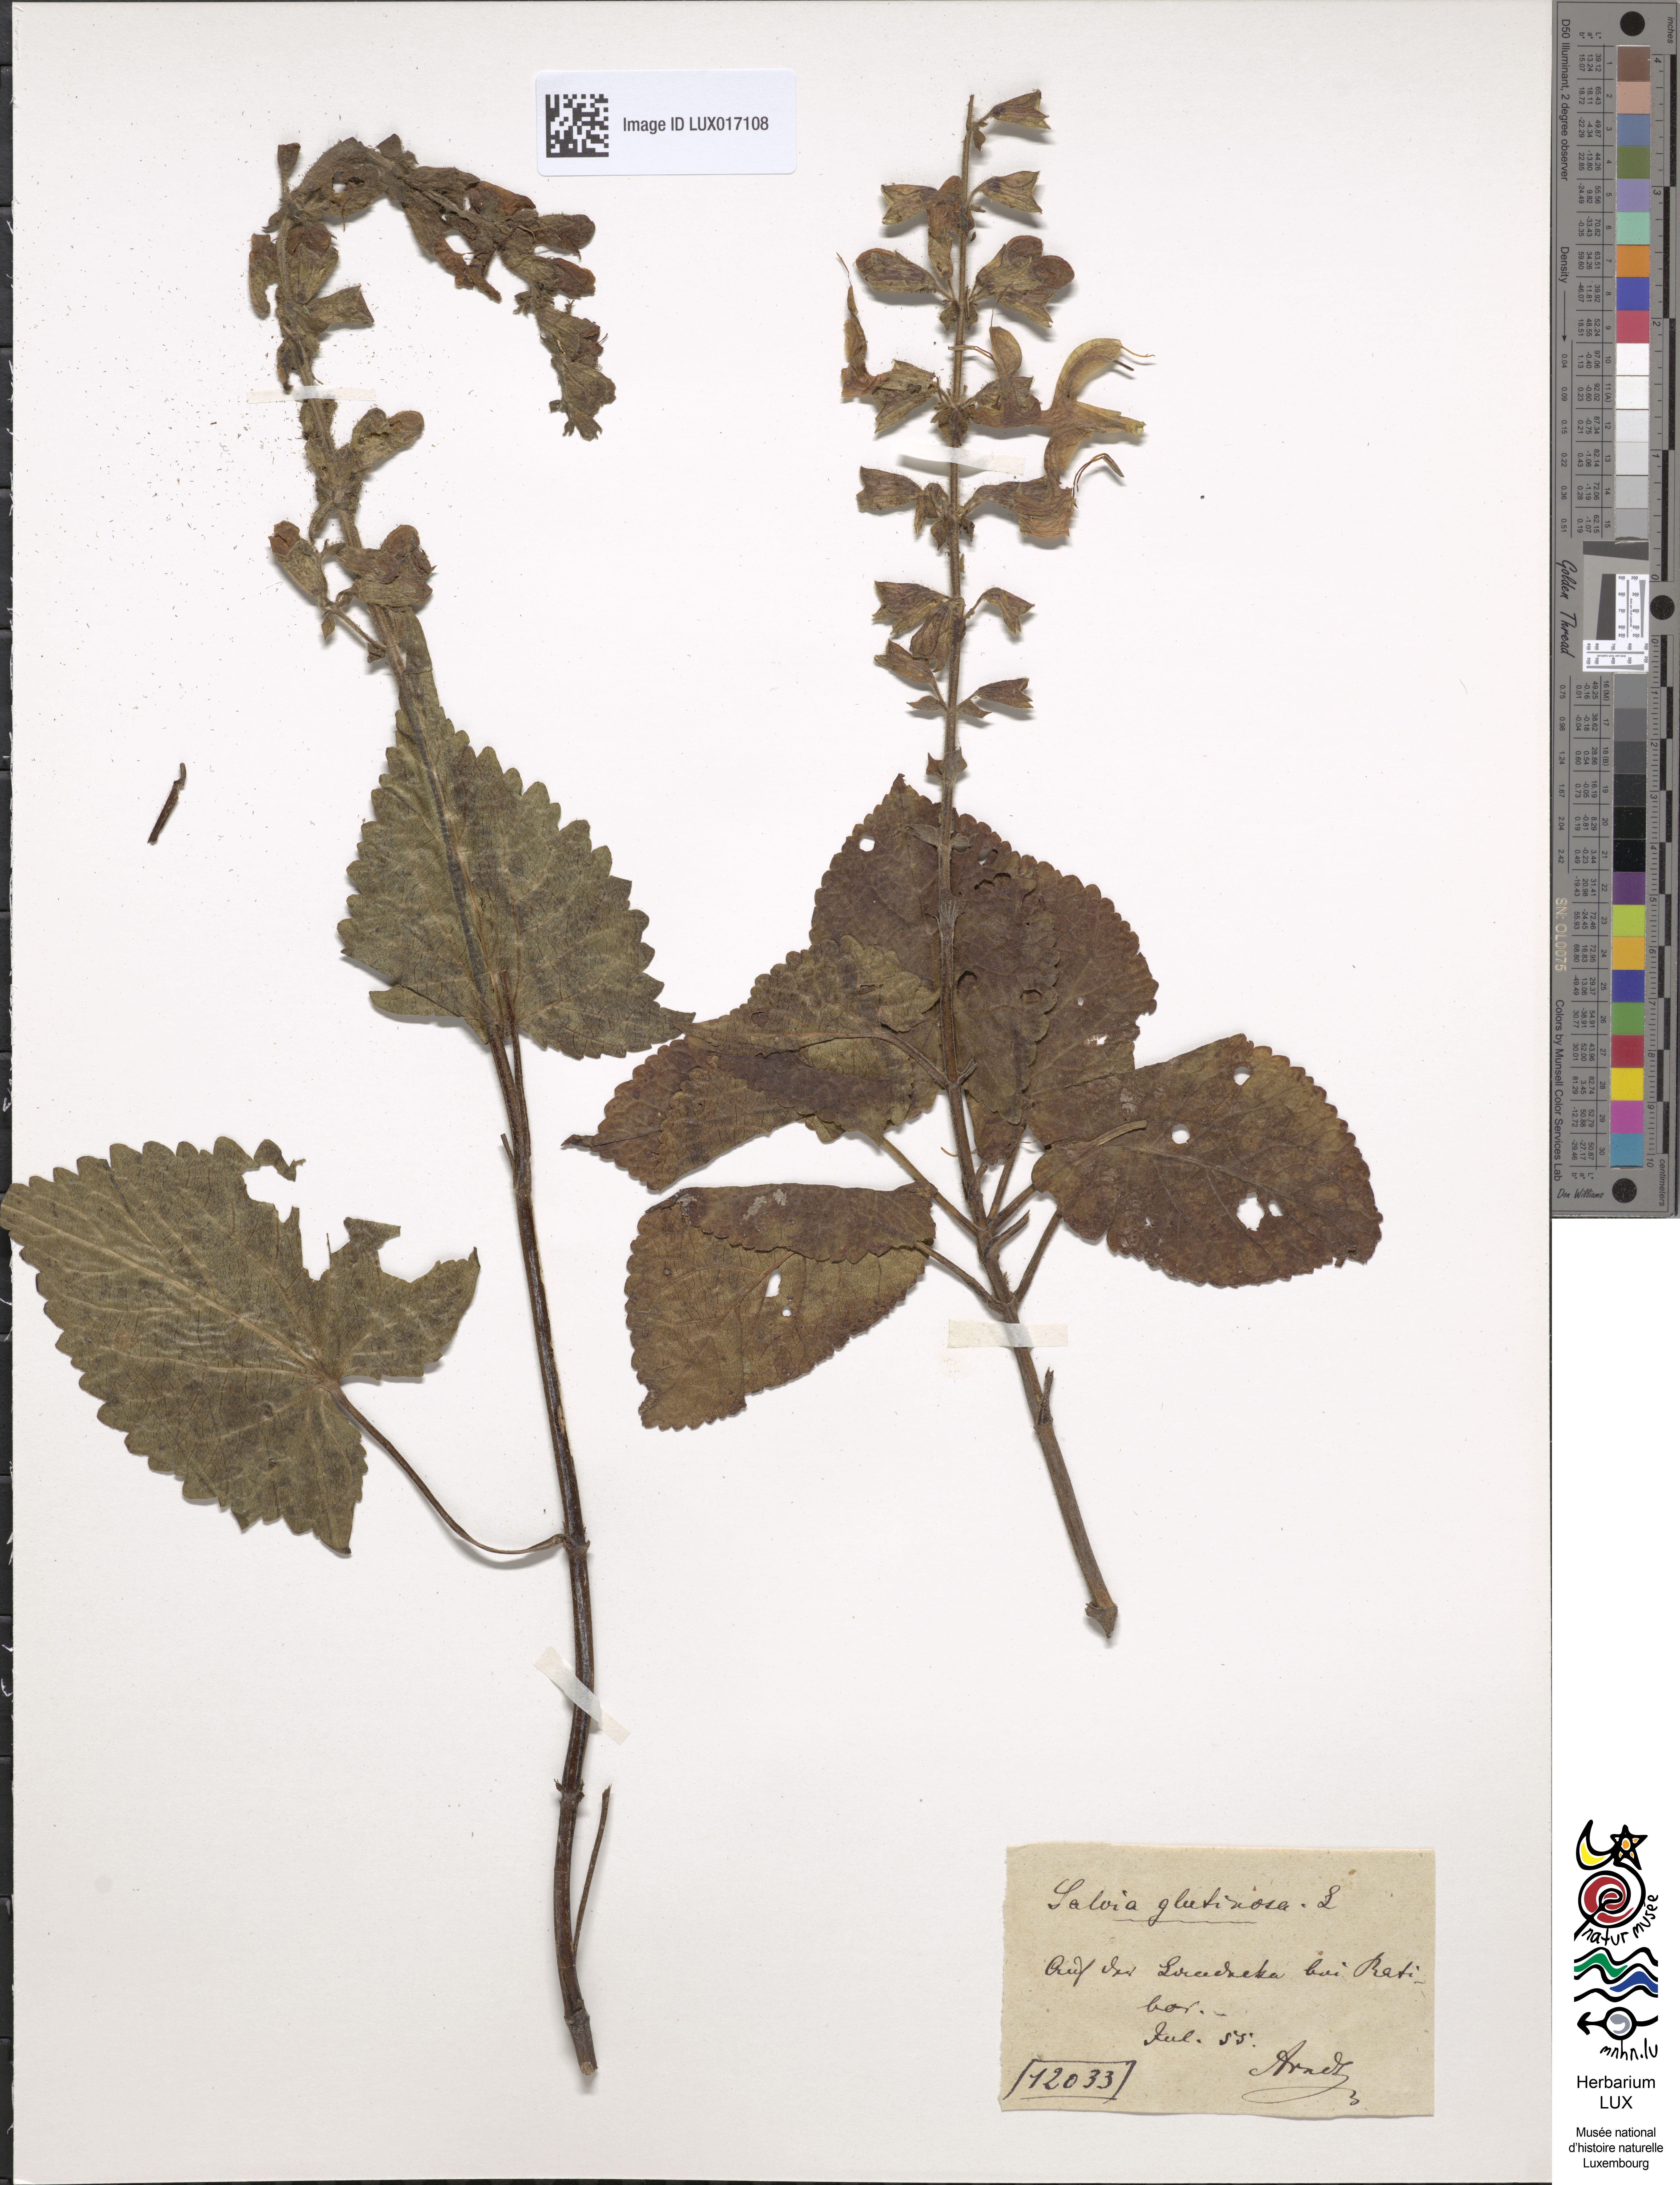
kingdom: Plantae
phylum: Tracheophyta
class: Magnoliopsida
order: Lamiales
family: Lamiaceae
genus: Salvia
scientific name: Salvia glutinosa
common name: Sticky clary
